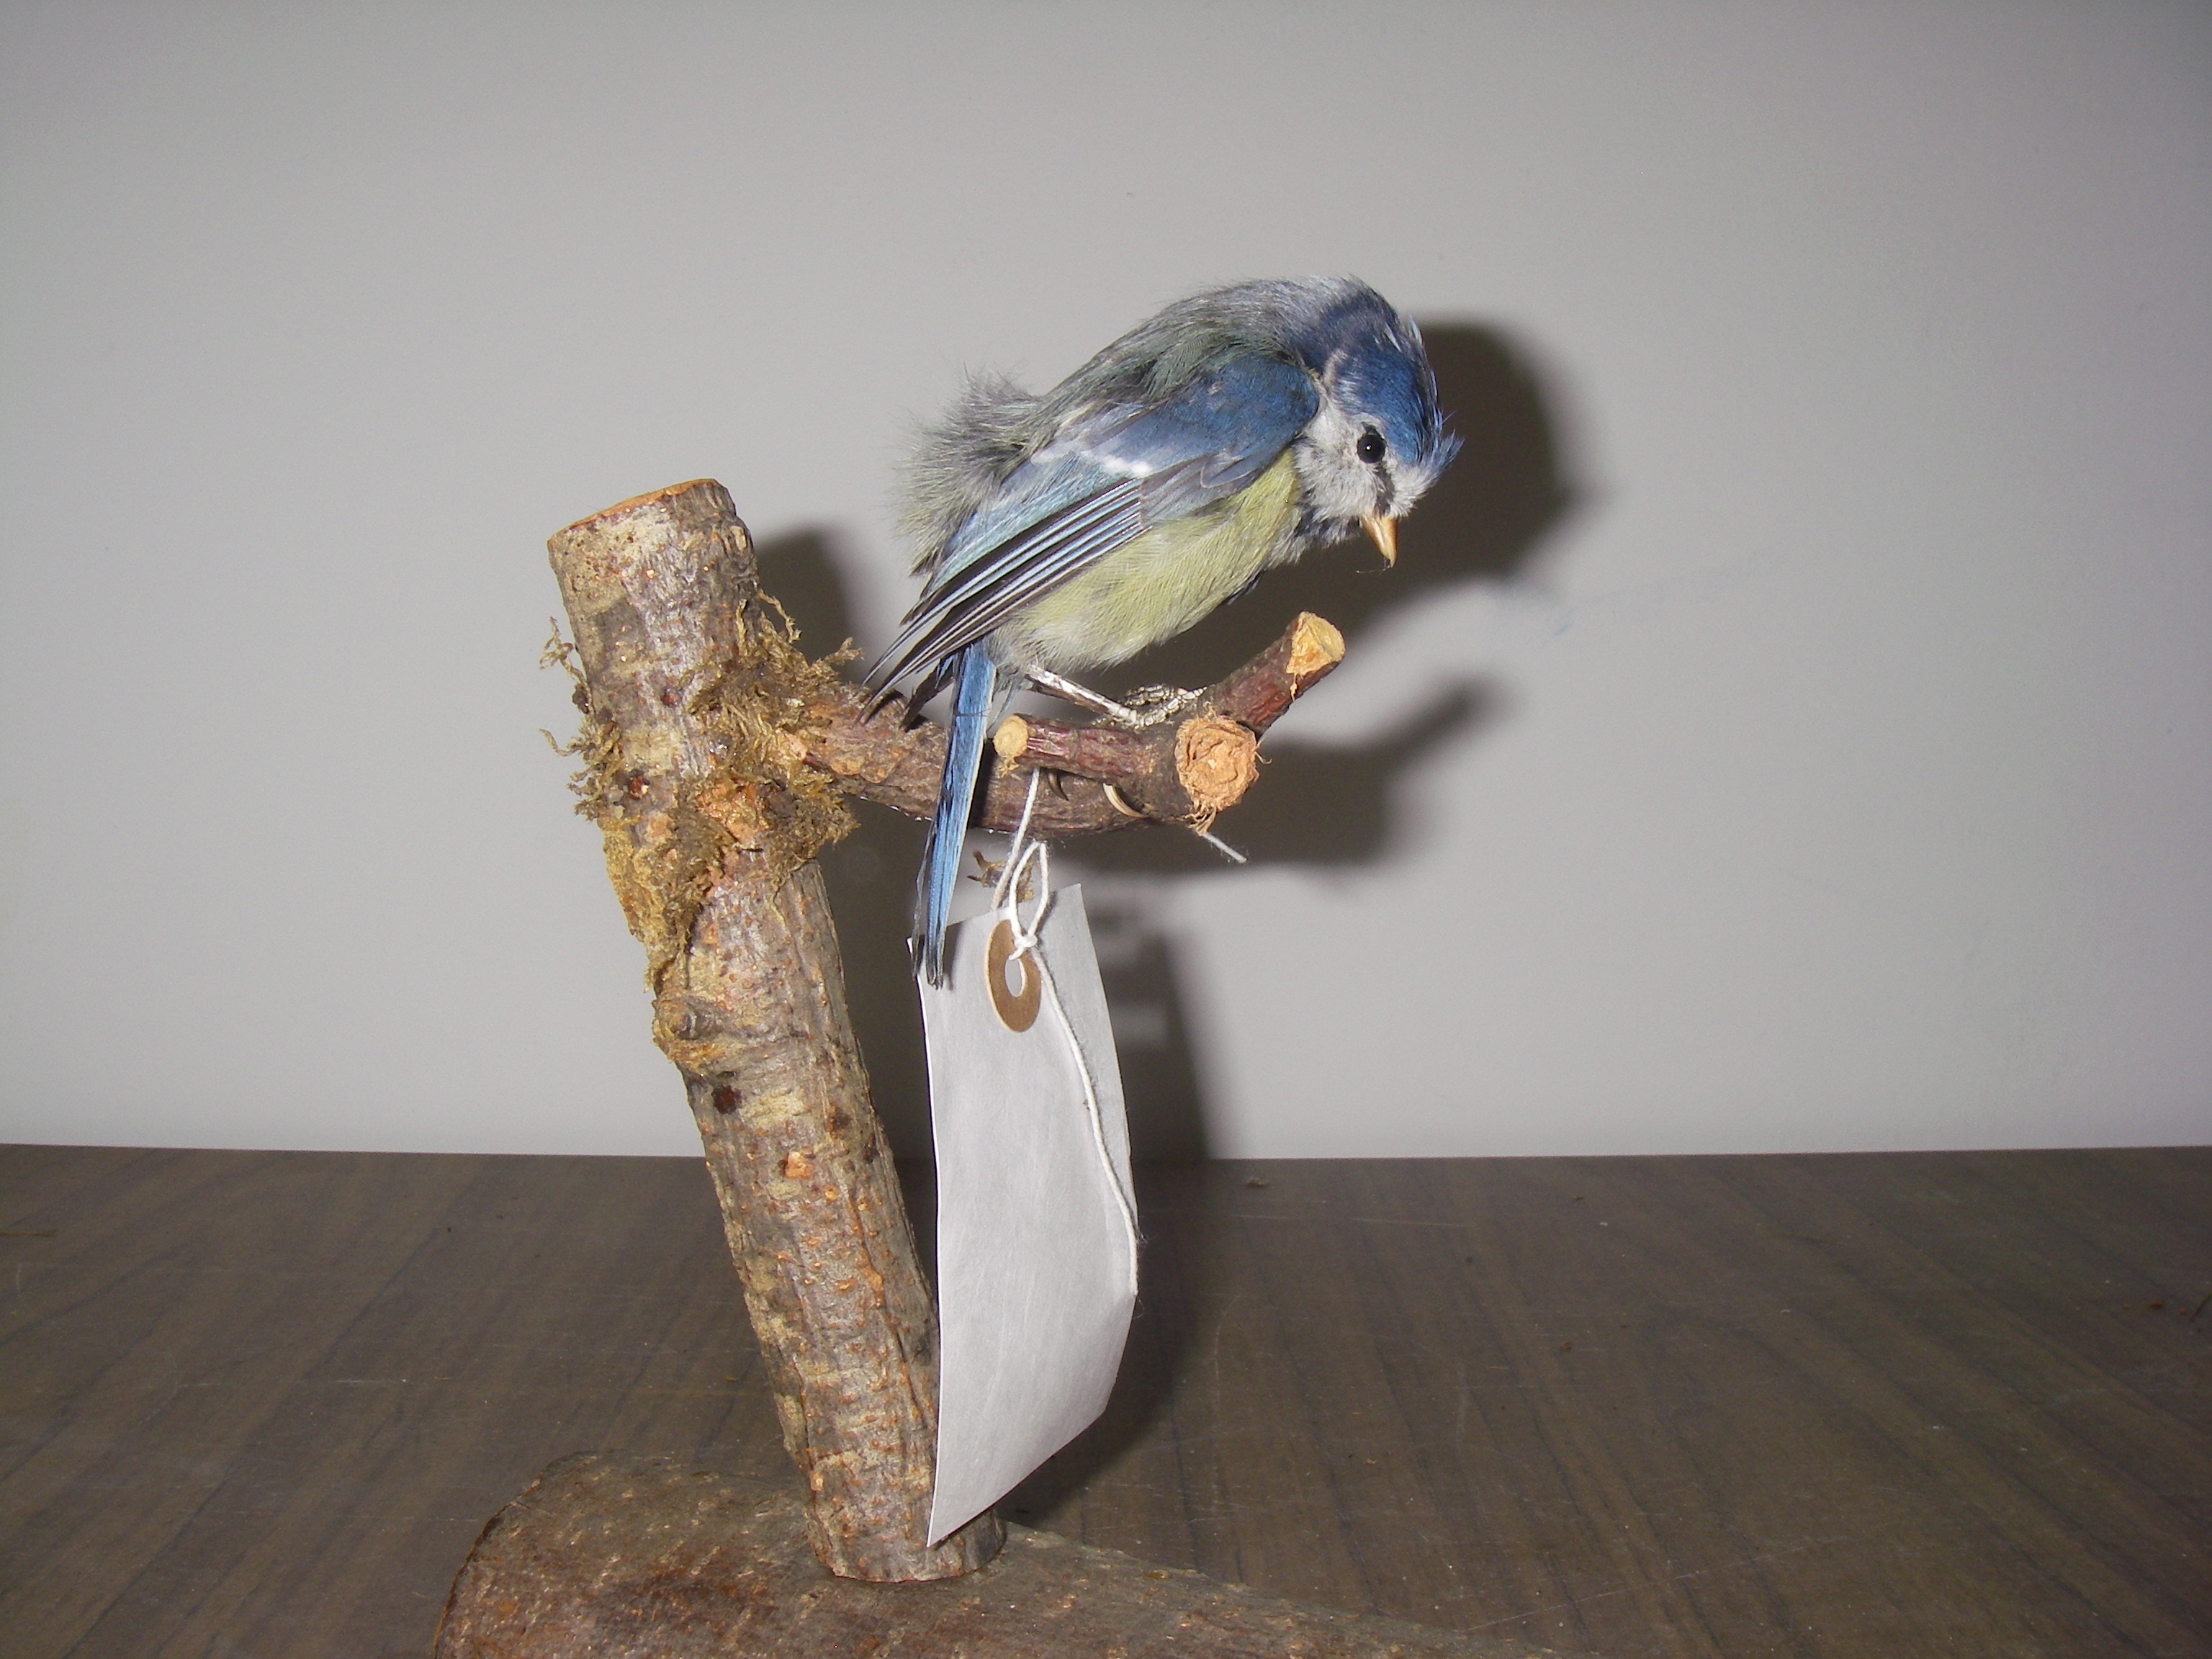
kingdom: Animalia
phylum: Chordata
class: Aves
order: Passeriformes
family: Paridae
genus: Cyanistes
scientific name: Cyanistes caeruleus
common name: Eurasian blue tit
